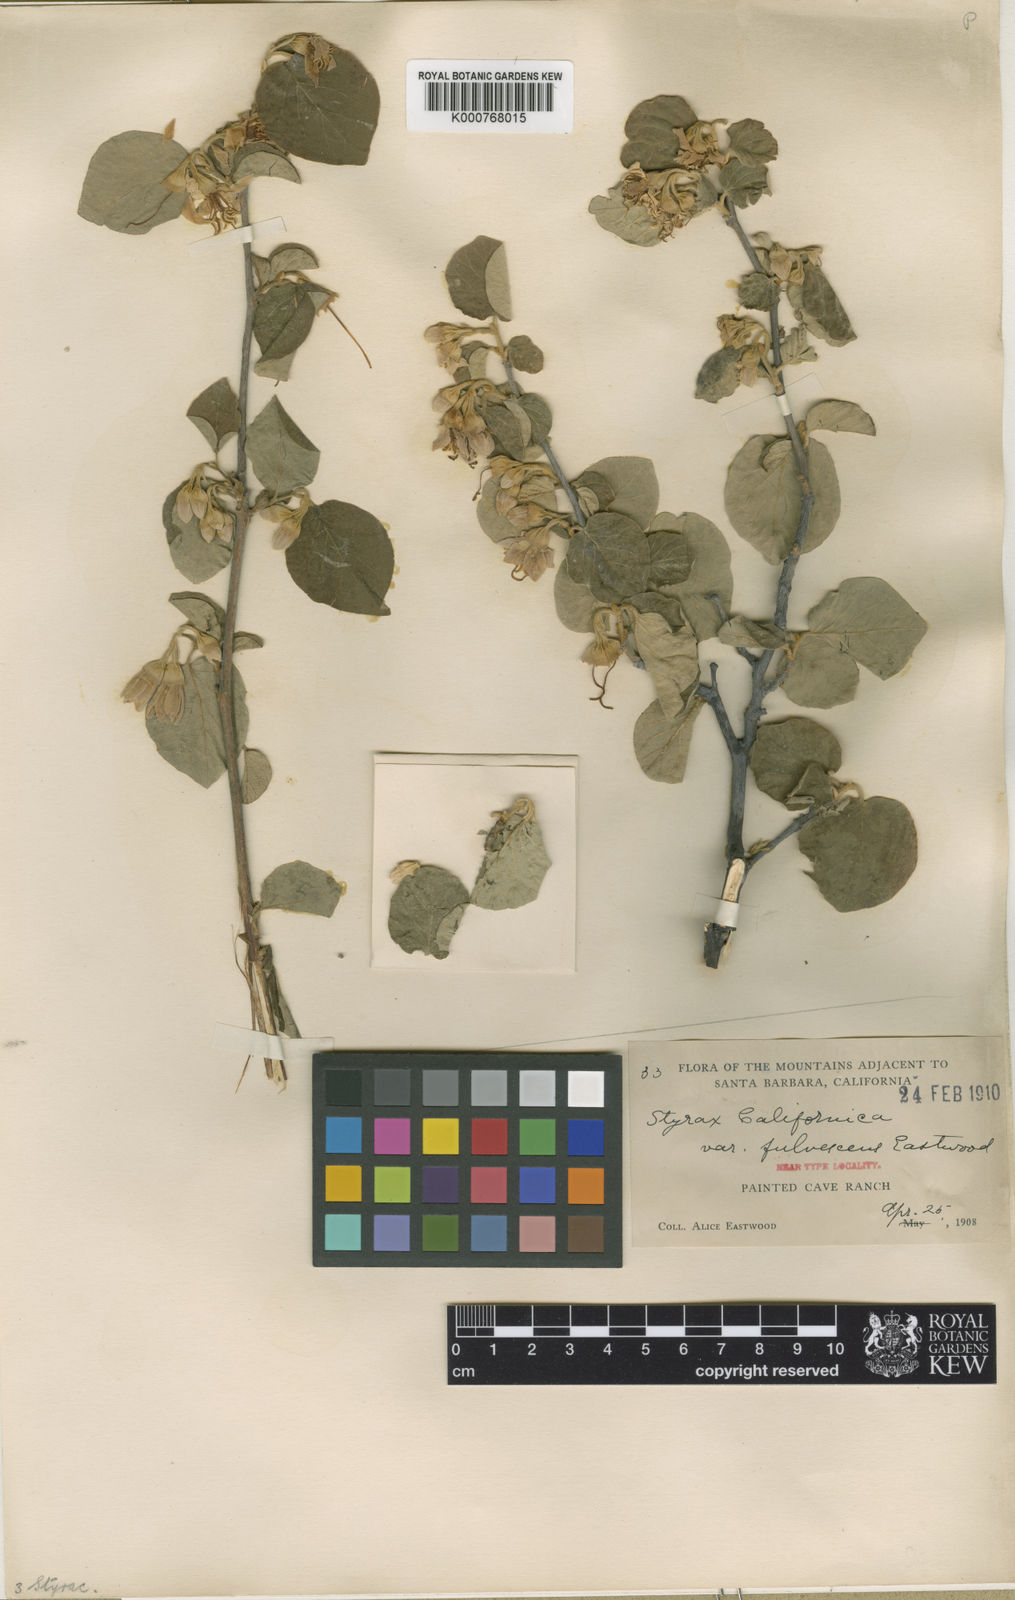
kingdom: Plantae
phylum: Tracheophyta
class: Magnoliopsida
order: Ericales
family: Styracaceae
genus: Styrax
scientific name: Styrax officinalis
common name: Storax
